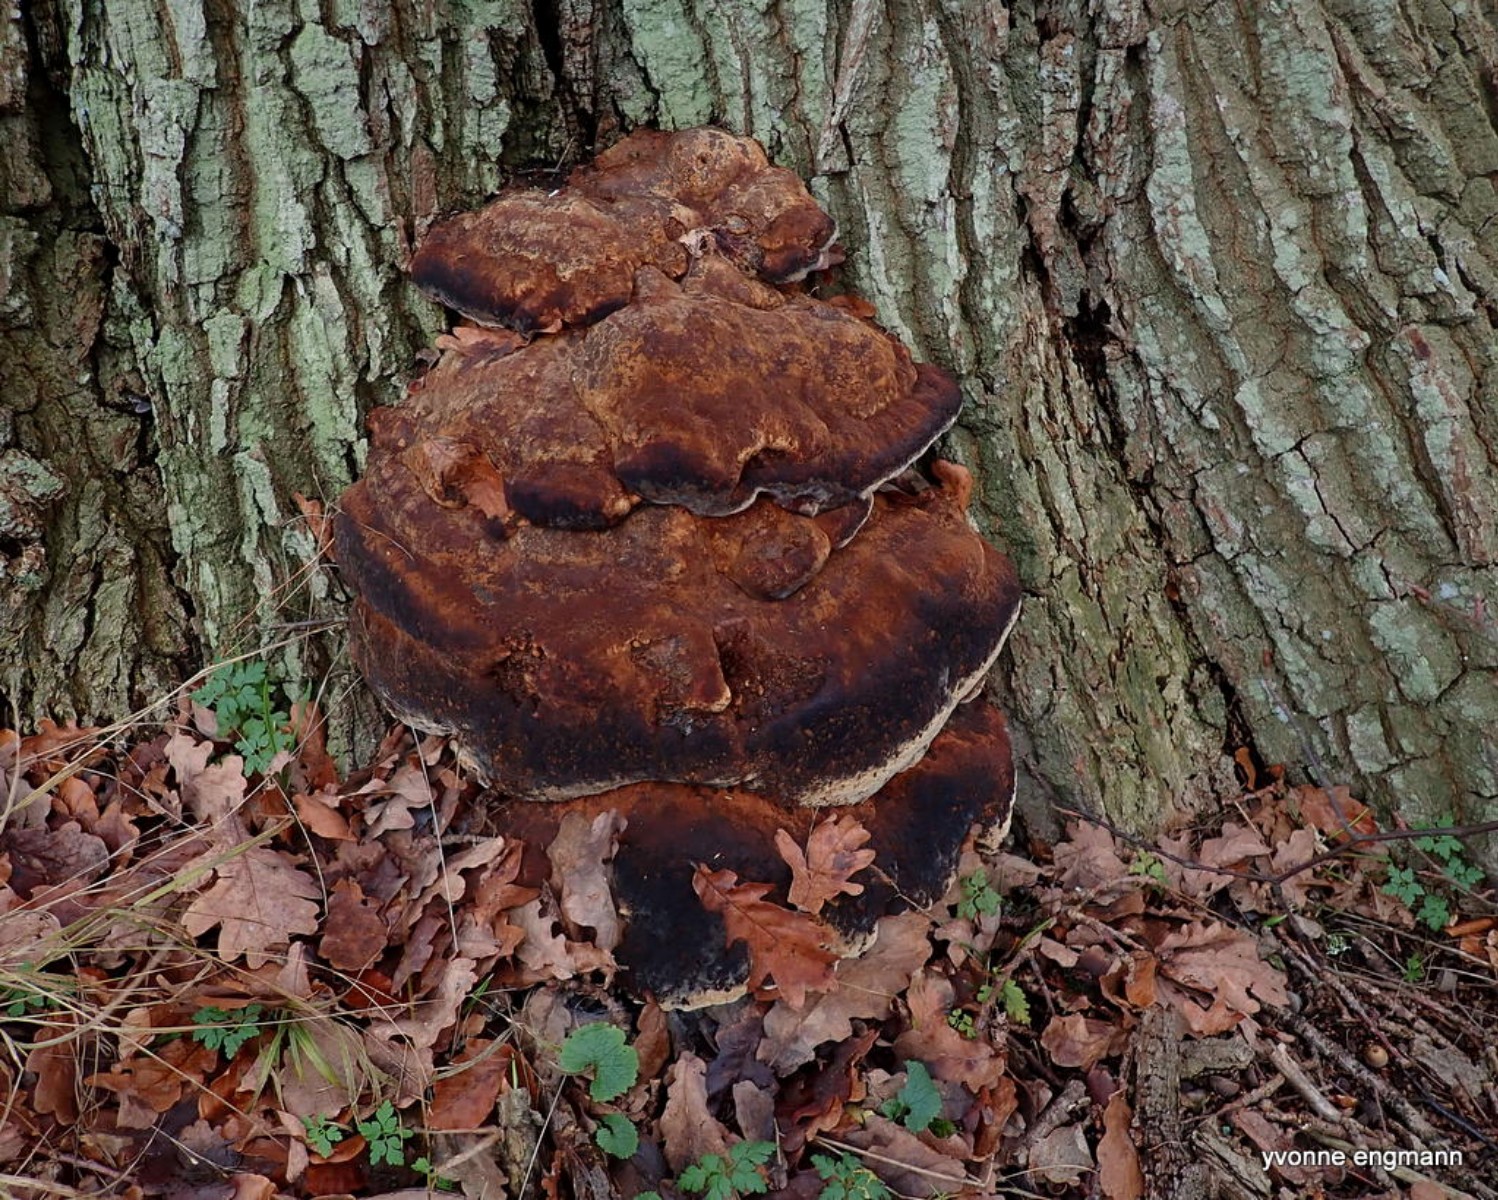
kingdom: Fungi
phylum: Basidiomycota
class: Agaricomycetes
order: Hymenochaetales
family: Hymenochaetaceae
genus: Pseudoinonotus
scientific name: Pseudoinonotus dryadeus
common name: ege-spejlporesvamp
